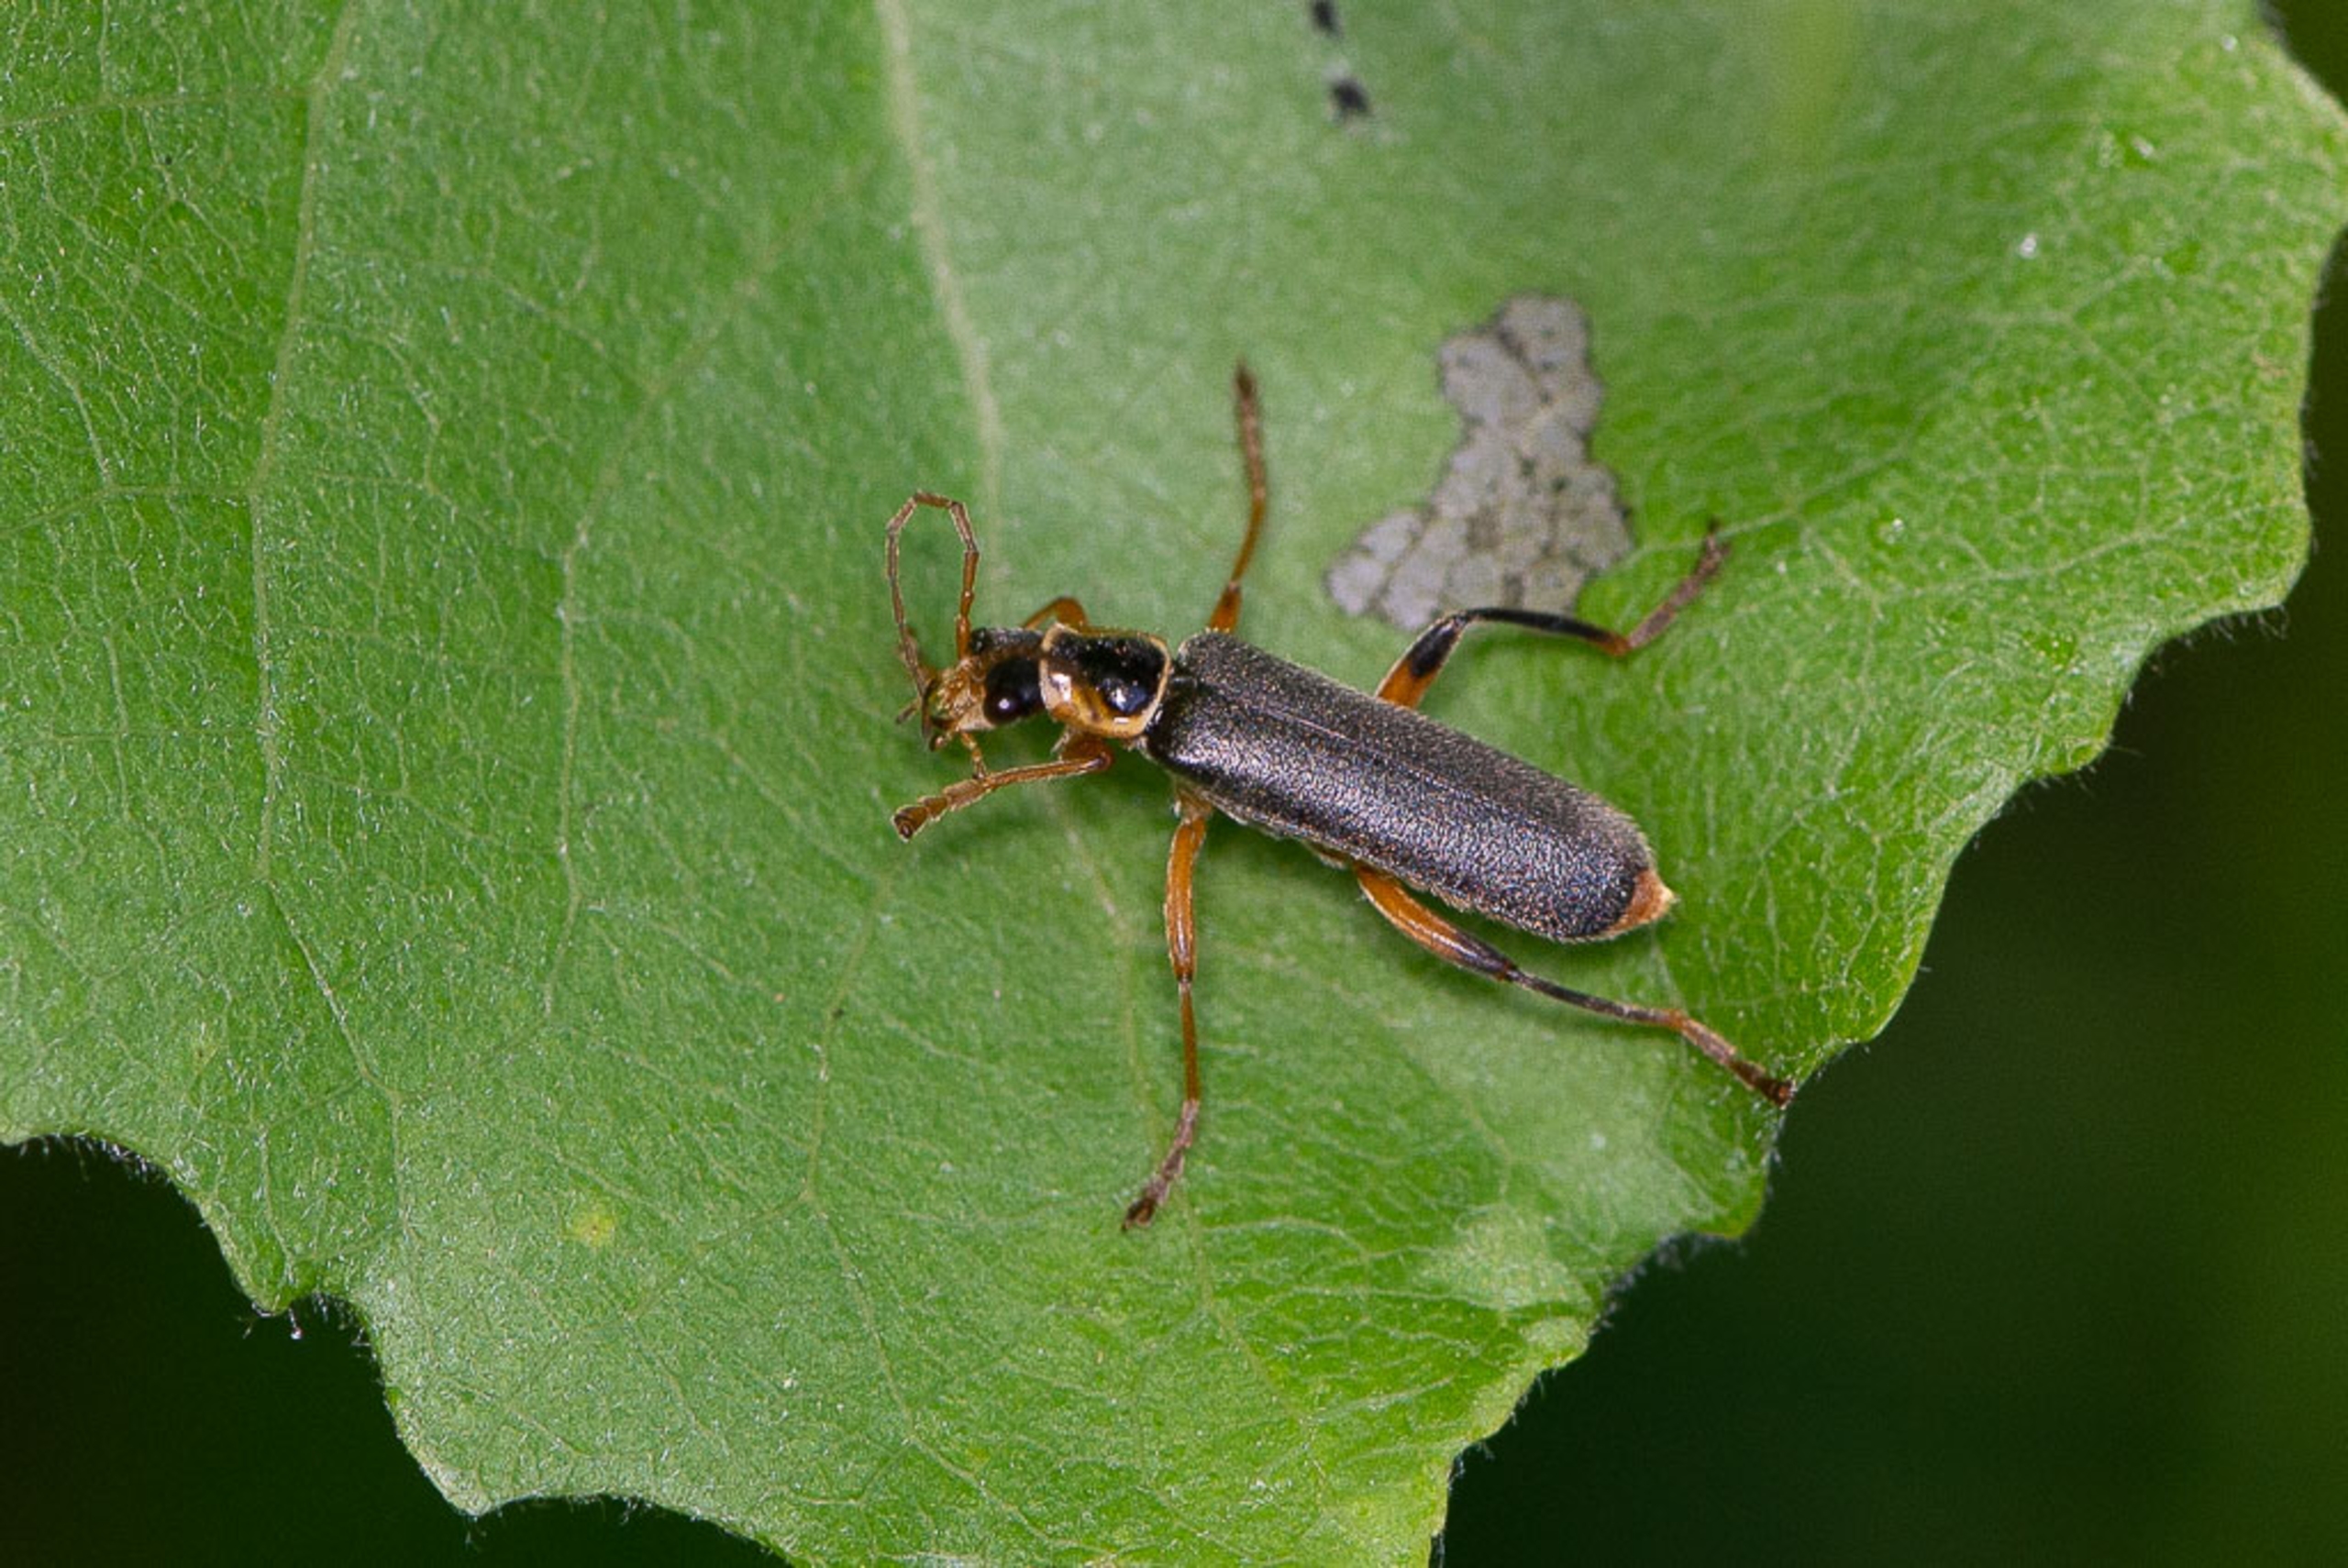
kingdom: Animalia
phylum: Arthropoda
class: Insecta
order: Coleoptera
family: Cantharidae
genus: Cantharis
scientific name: Cantharis nigricans
